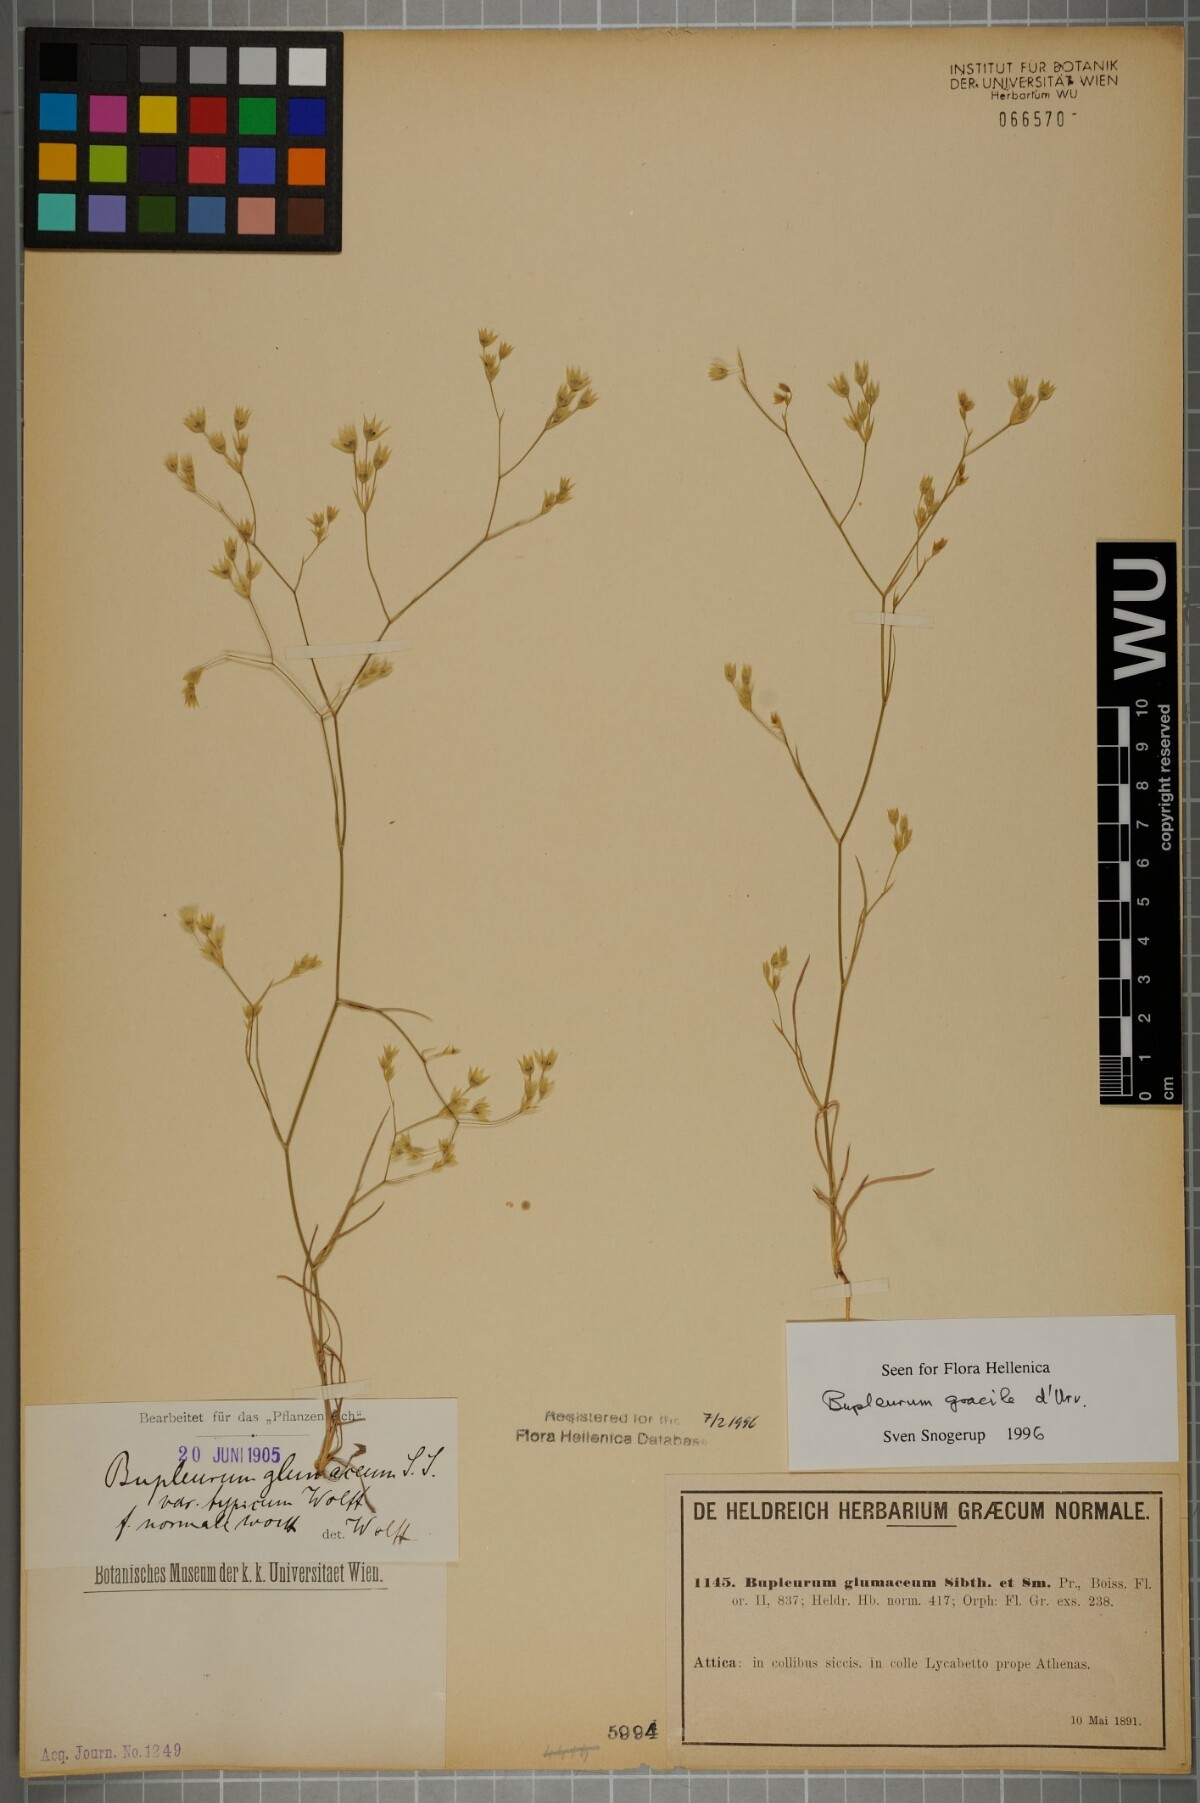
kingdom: Plantae
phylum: Tracheophyta
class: Magnoliopsida
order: Apiales
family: Apiaceae
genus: Bupleurum
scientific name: Bupleurum gracile
